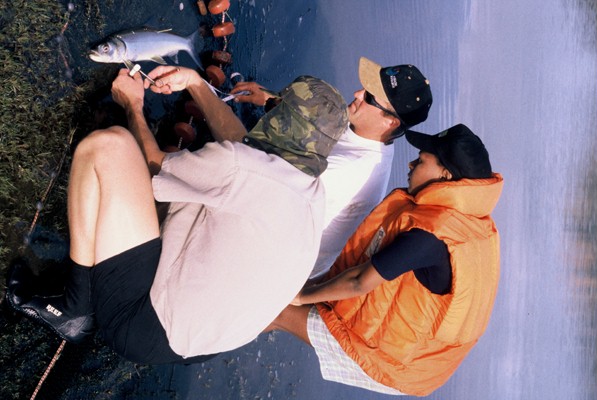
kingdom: Animalia
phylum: Chordata
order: Elopiformes
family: Elopidae
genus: Elops
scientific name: Elops machnata
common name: Ladyfish
